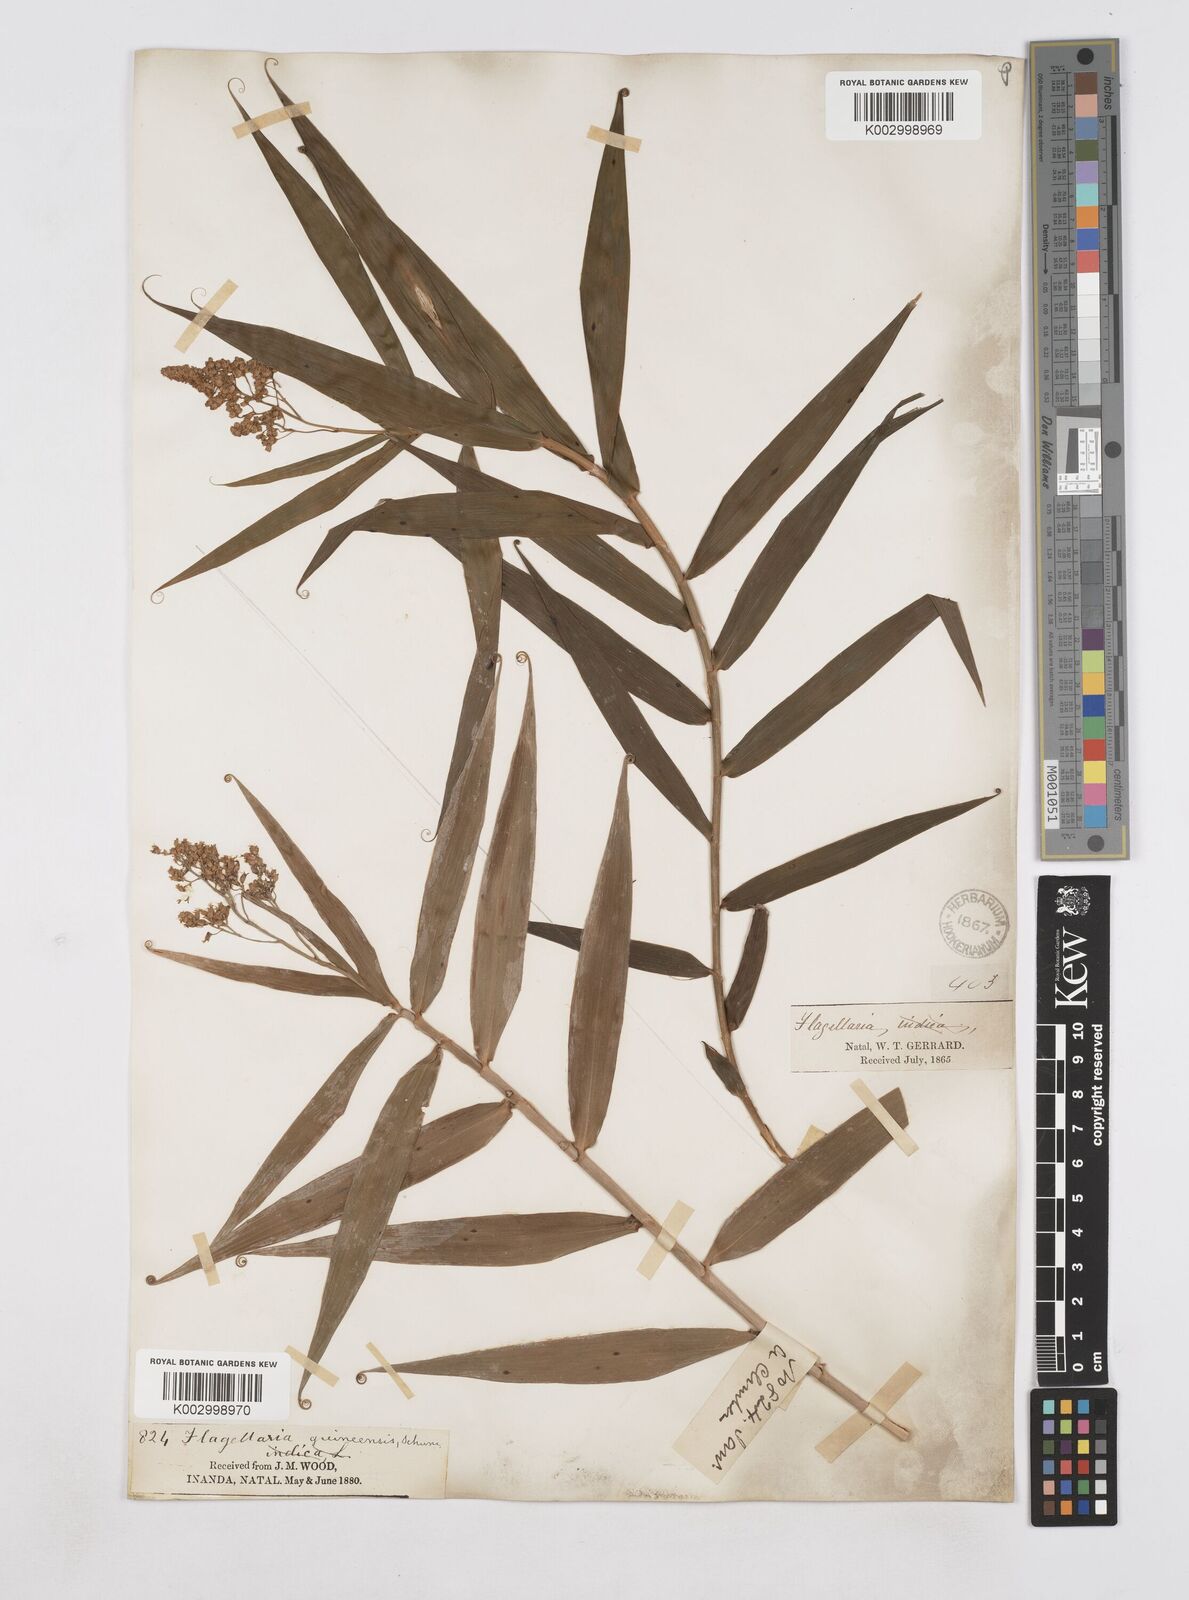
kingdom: Plantae
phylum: Tracheophyta
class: Liliopsida
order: Poales
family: Flagellariaceae
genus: Flagellaria
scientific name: Flagellaria guineensis
